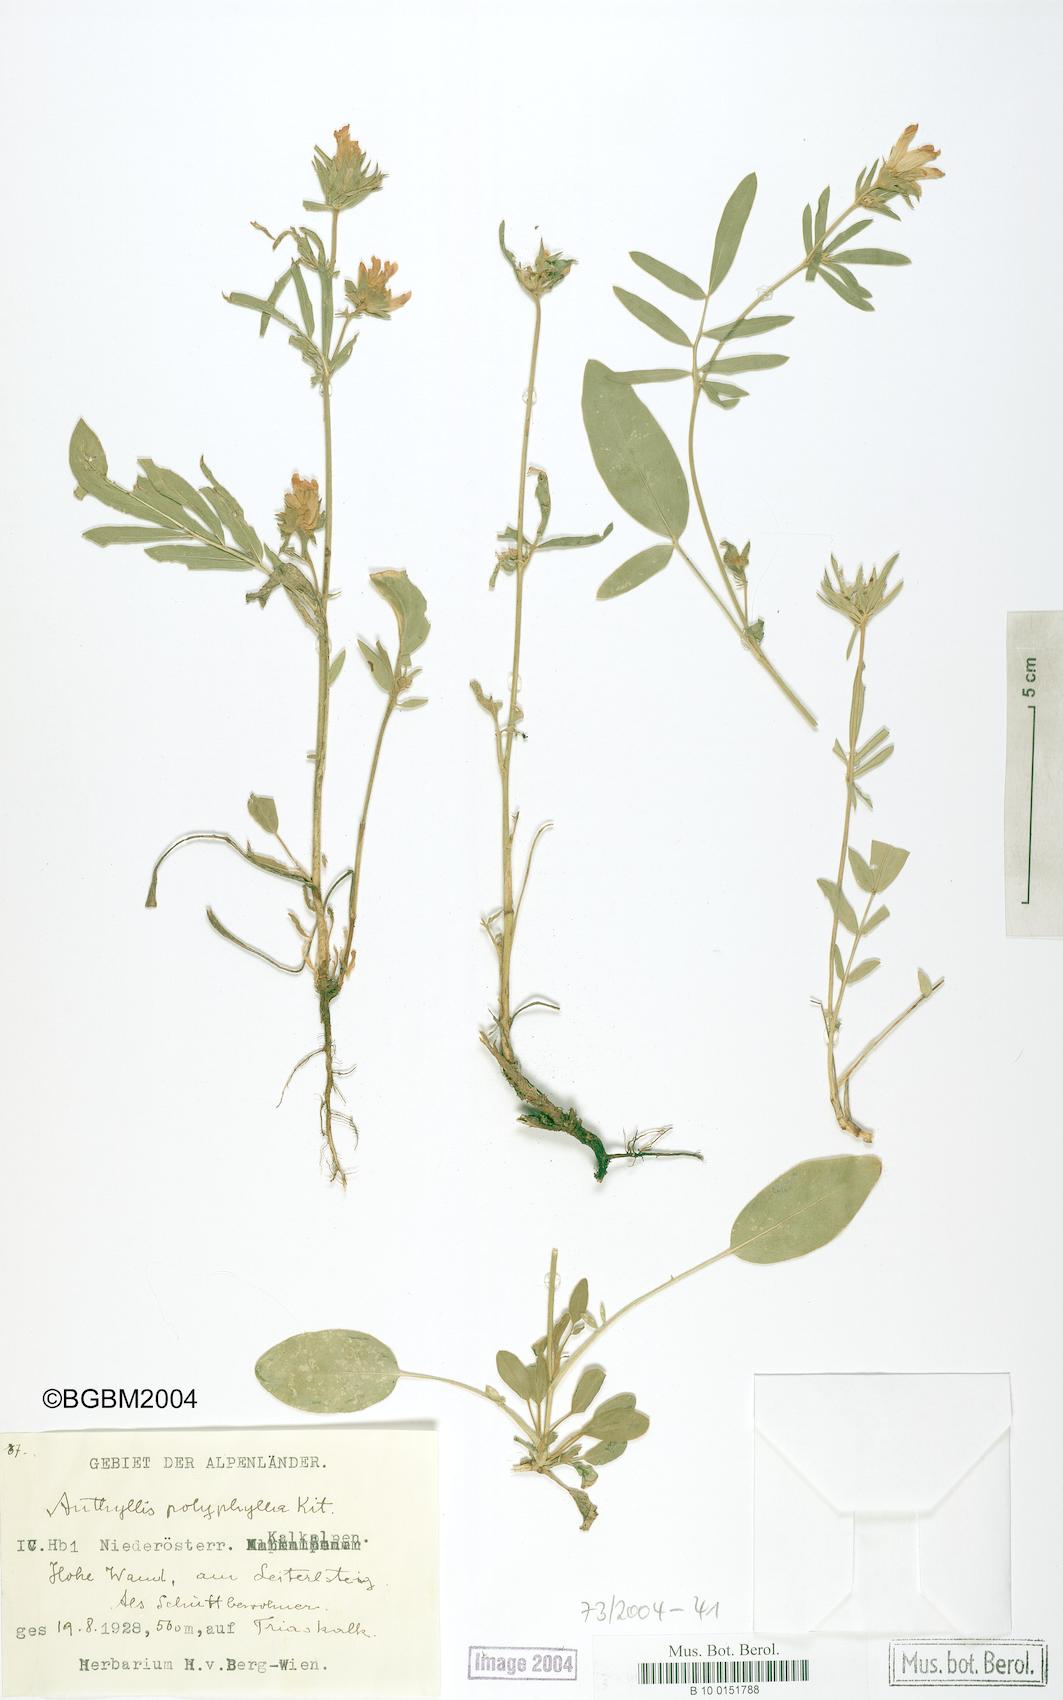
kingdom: Plantae
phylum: Tracheophyta
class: Magnoliopsida
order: Fabales
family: Fabaceae
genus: Anthyllis
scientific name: Anthyllis vulneraria
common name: Kidney vetch
